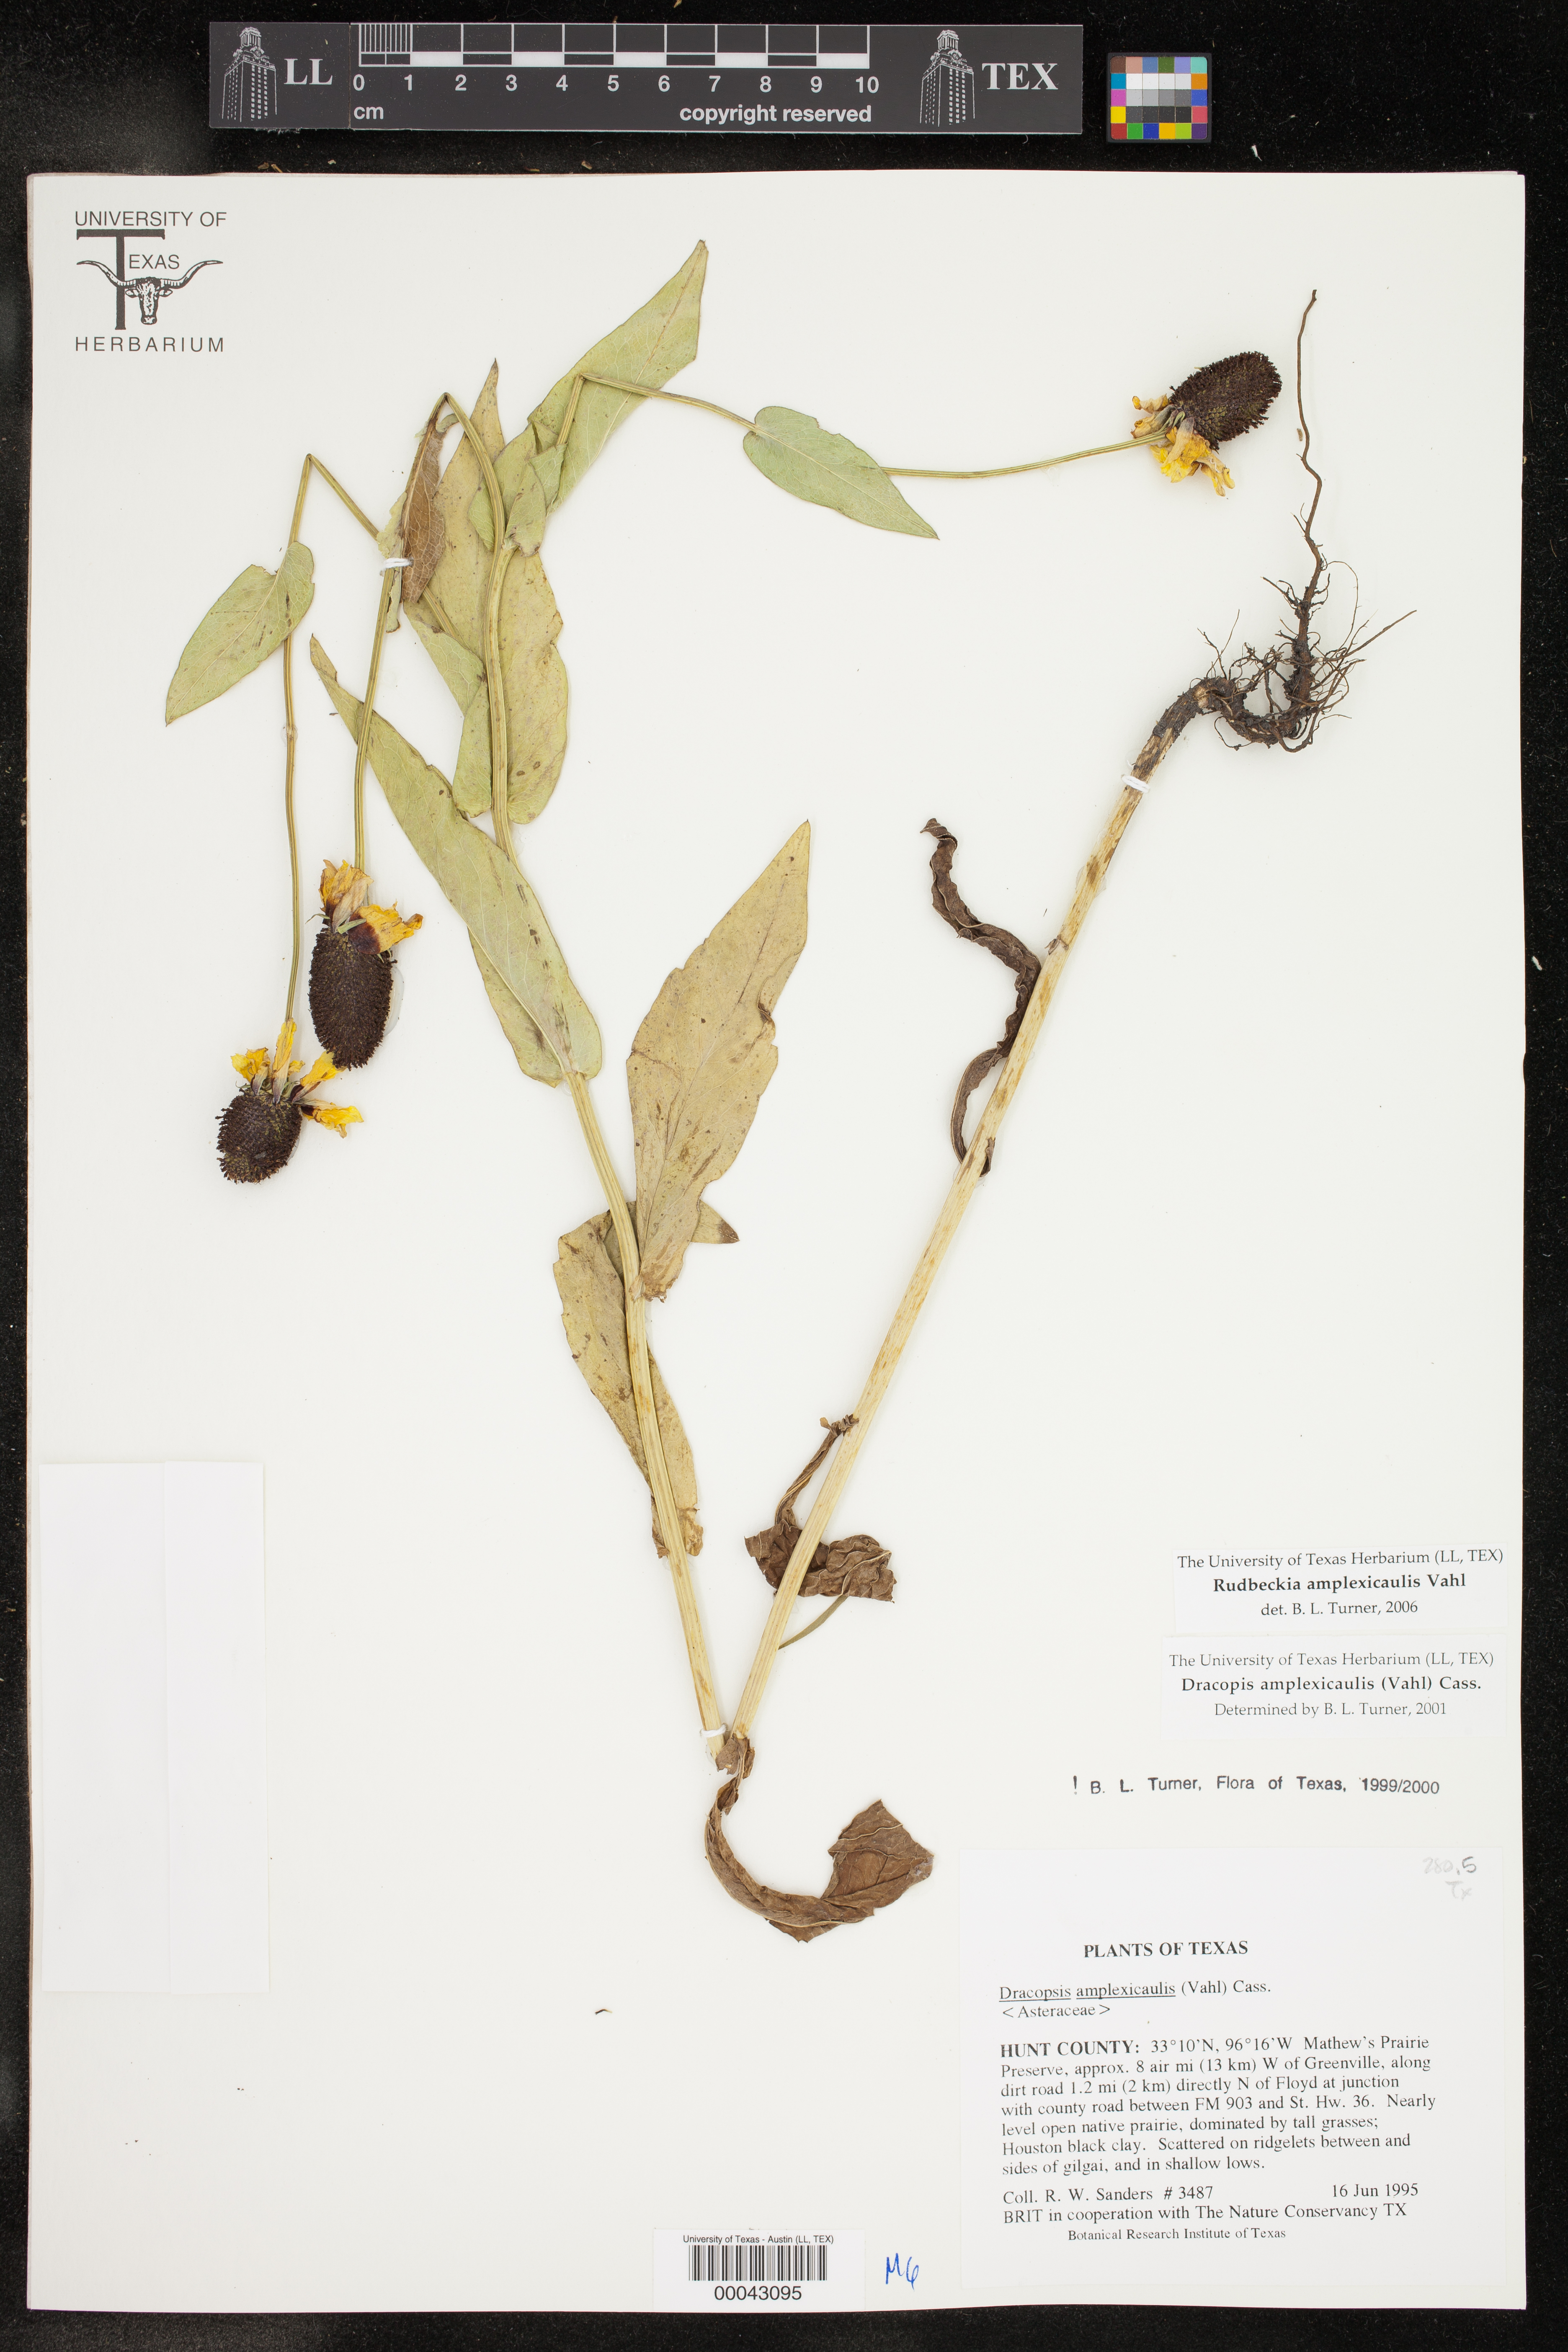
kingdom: Plantae
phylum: Tracheophyta
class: Magnoliopsida
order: Asterales
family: Asteraceae
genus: Rudbeckia
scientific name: Rudbeckia amplexicaulis
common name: Clasping-leaf coneflower
